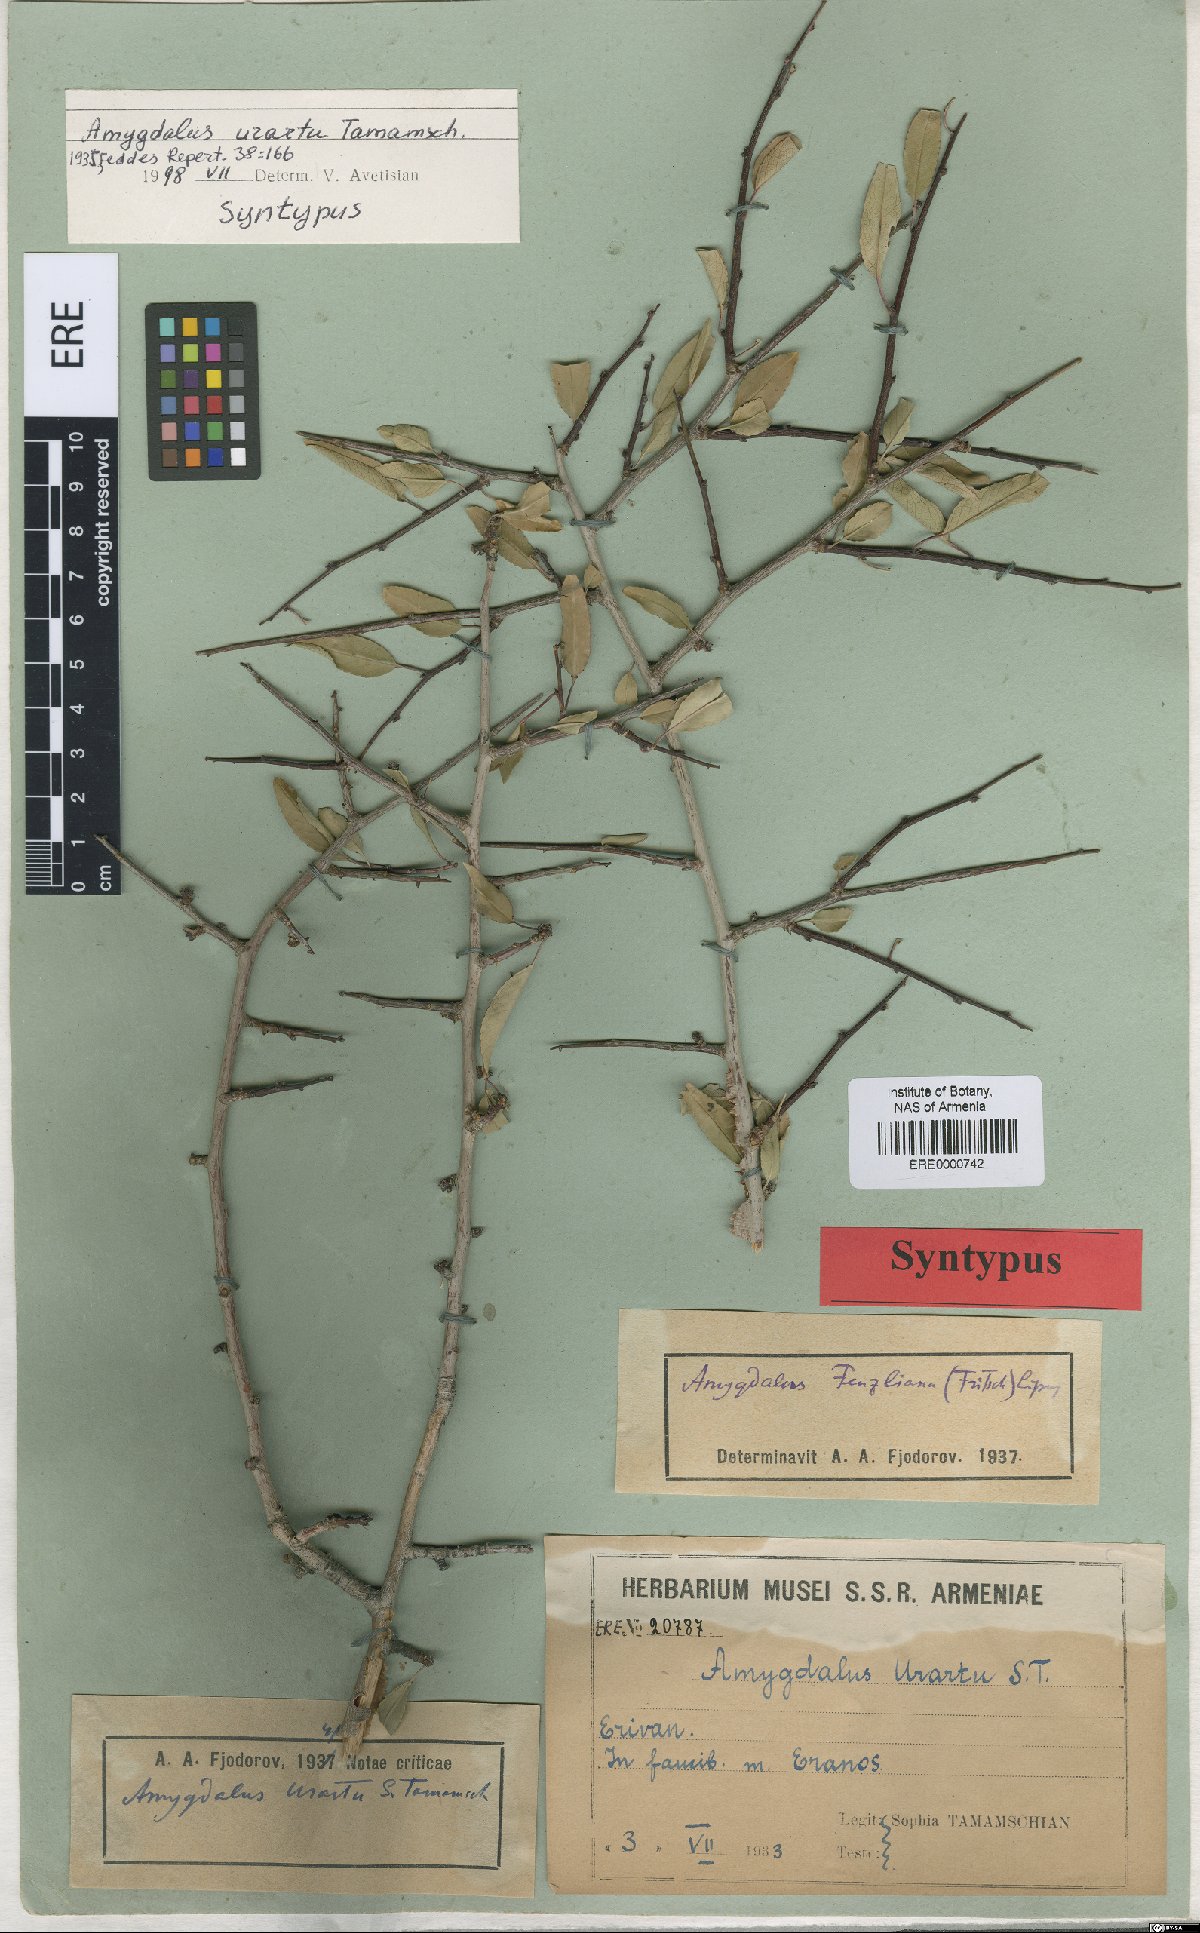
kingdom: Plantae
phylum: Tracheophyta
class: Magnoliopsida
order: Rosales
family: Rosaceae
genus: Prunus
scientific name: Prunus urartu
